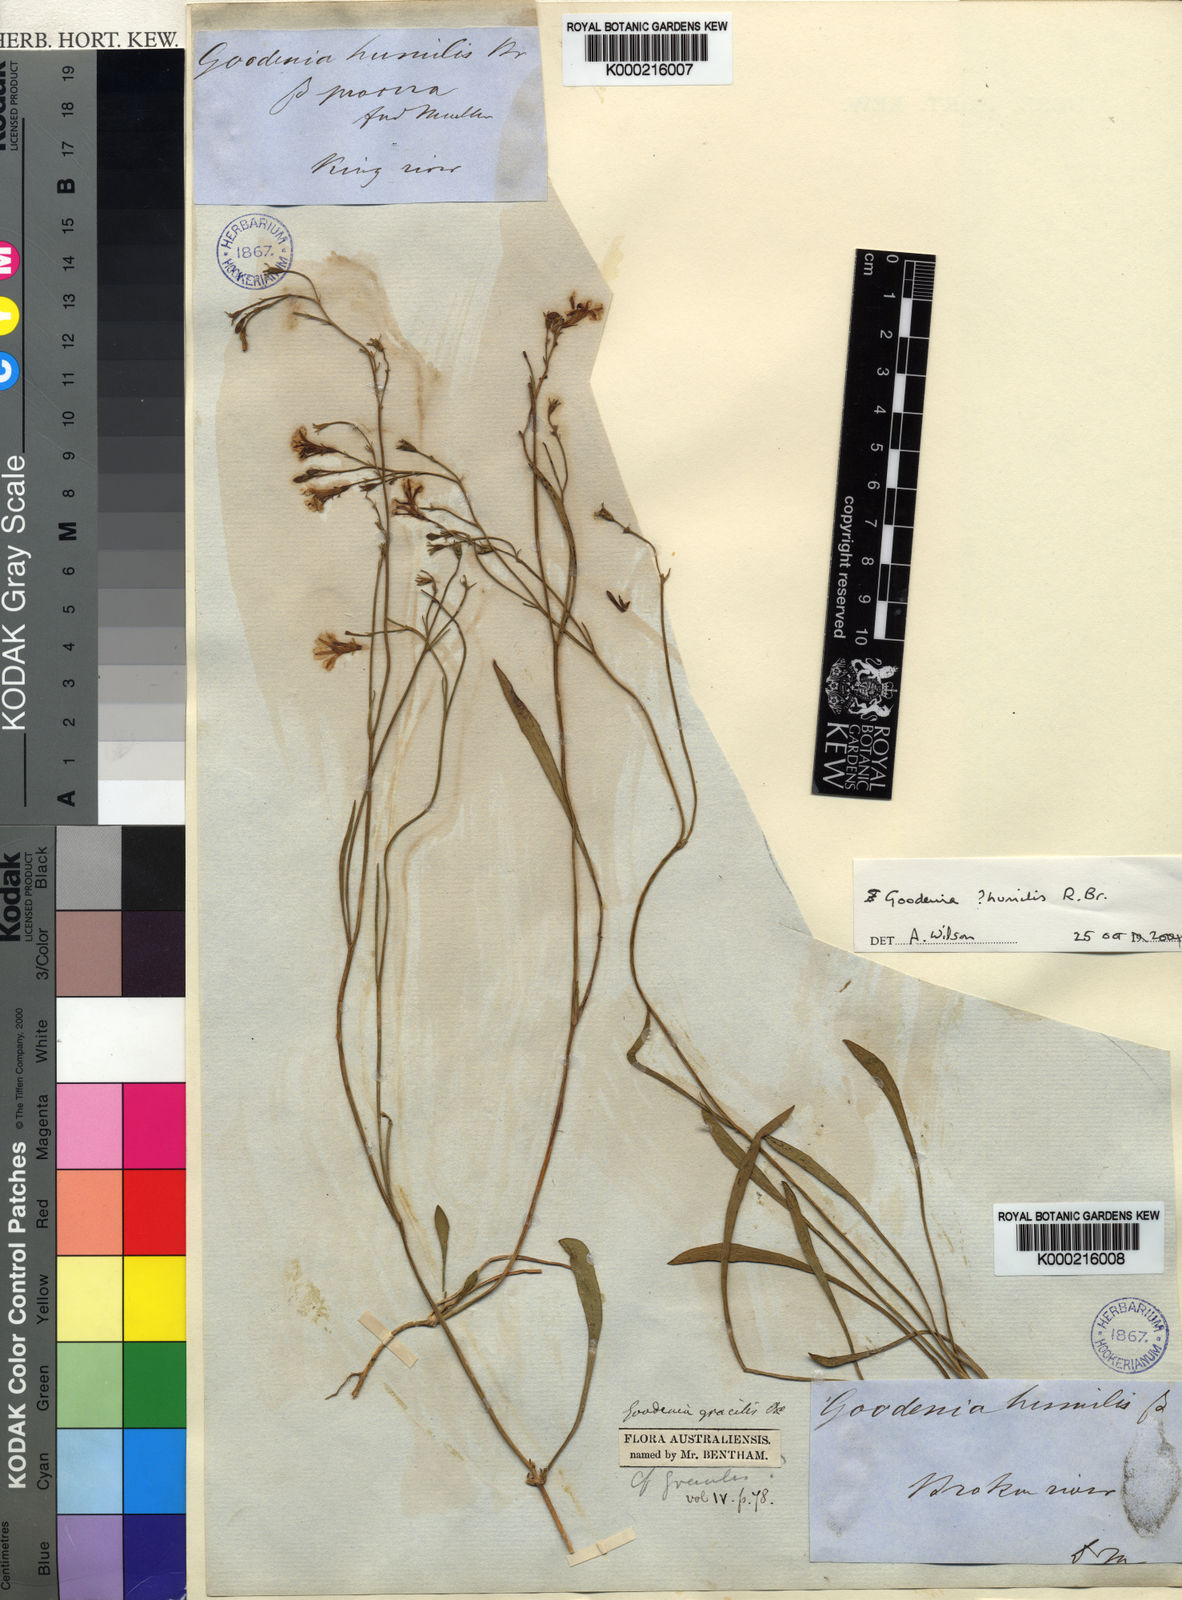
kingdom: Plantae
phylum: Tracheophyta
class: Magnoliopsida
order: Asterales
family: Goodeniaceae
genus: Goodenia
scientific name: Goodenia humilis
